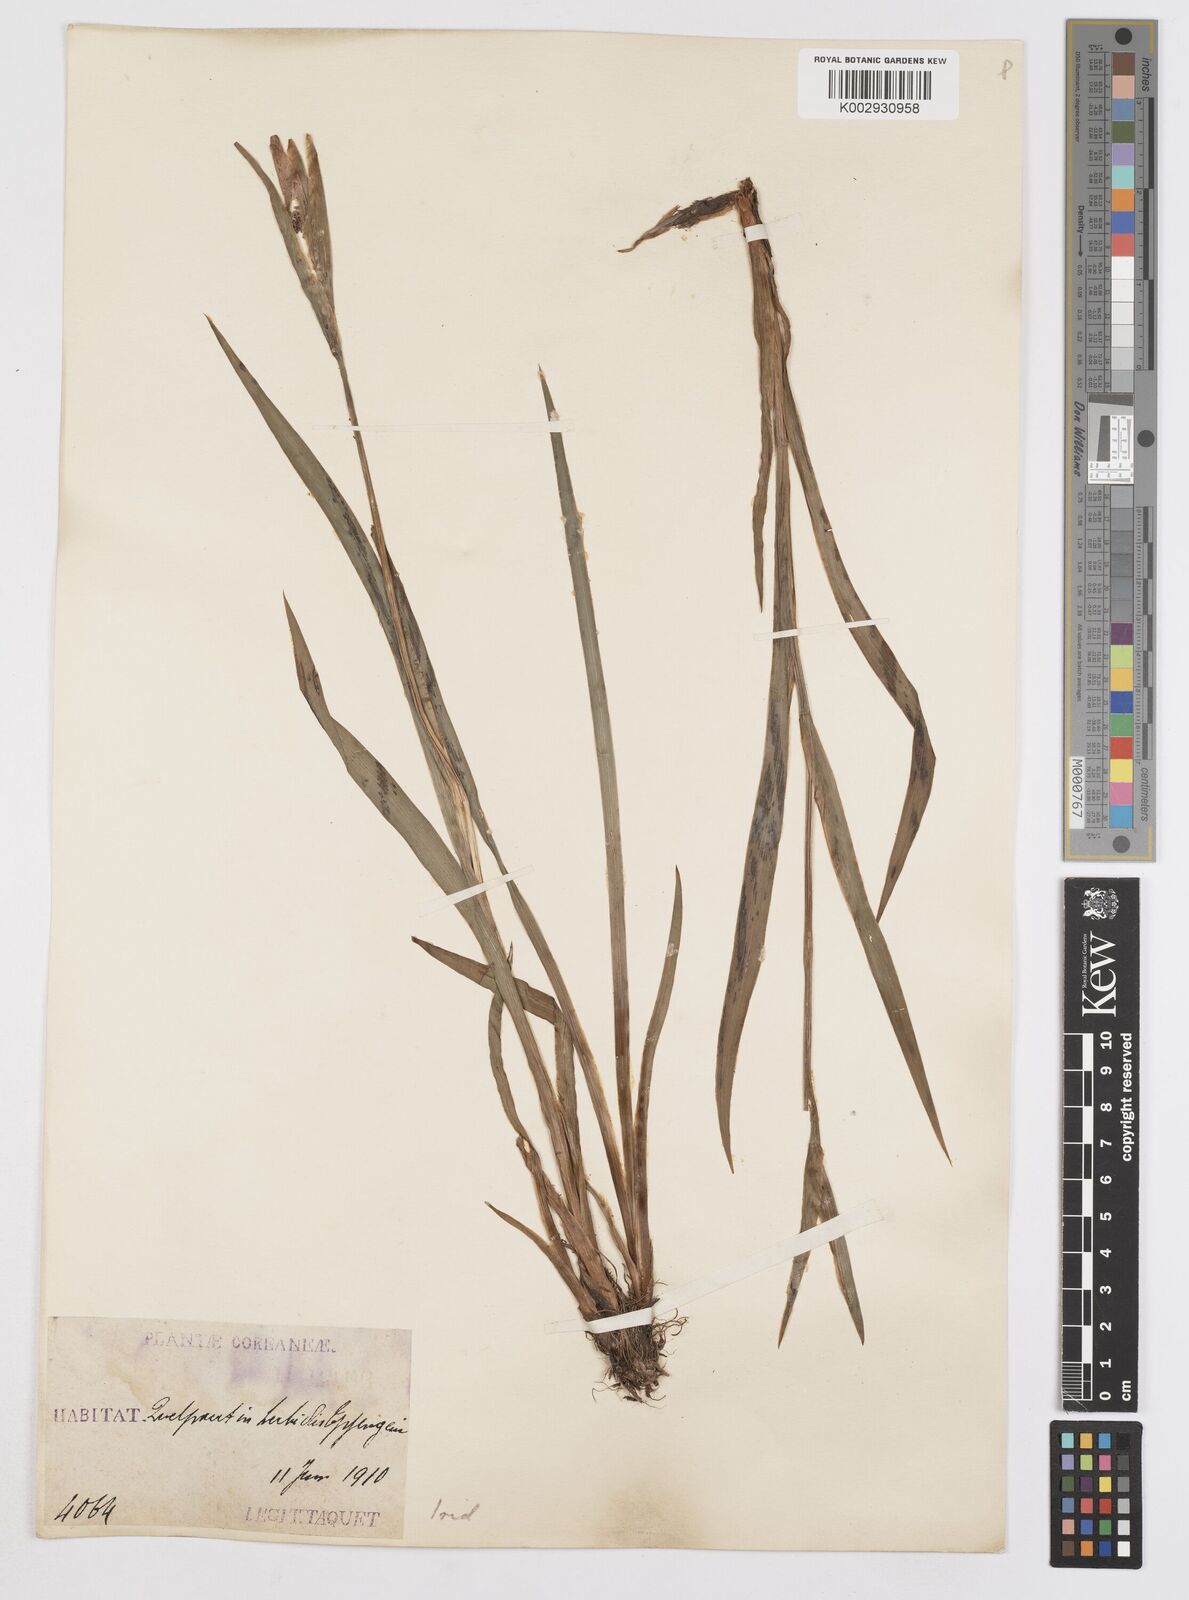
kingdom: Plantae
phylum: Tracheophyta
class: Liliopsida
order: Asparagales
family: Iridaceae
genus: Iris
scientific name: Iris
